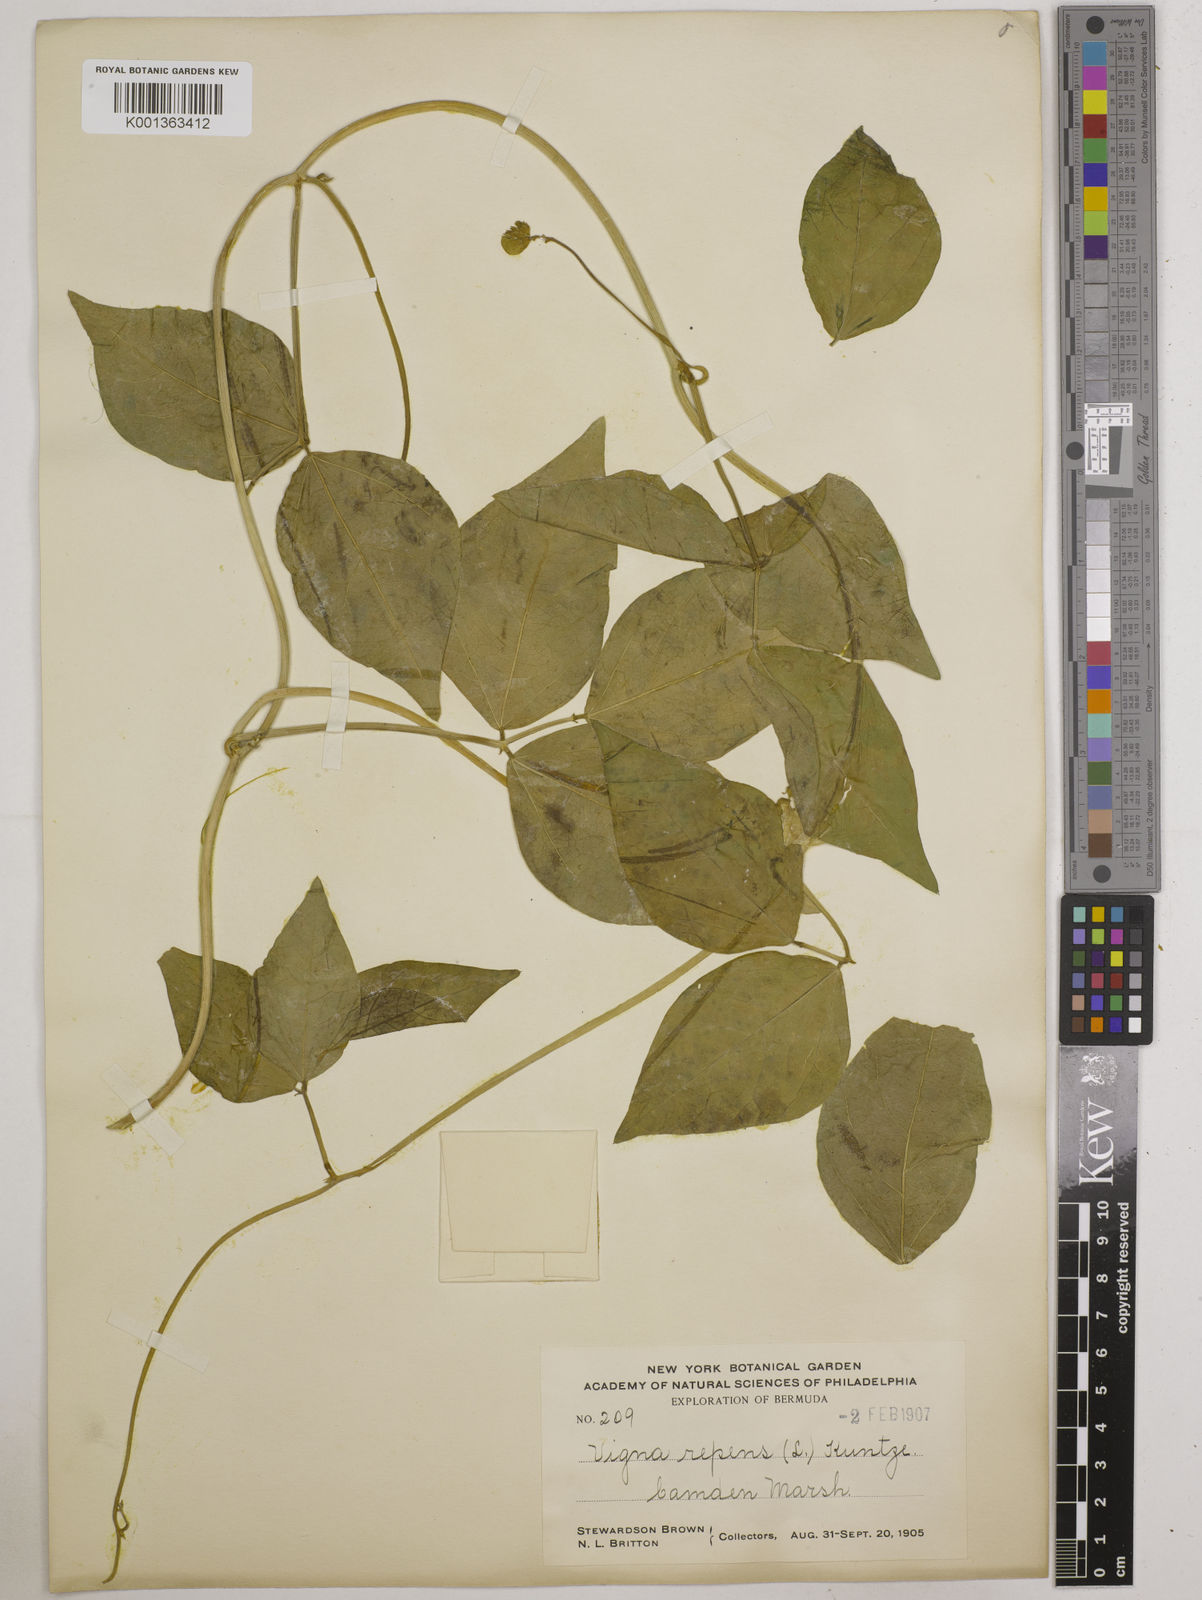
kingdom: Plantae
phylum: Tracheophyta
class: Magnoliopsida
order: Fabales
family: Fabaceae
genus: Vigna
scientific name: Vigna luteola
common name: Hairypod cowpea
